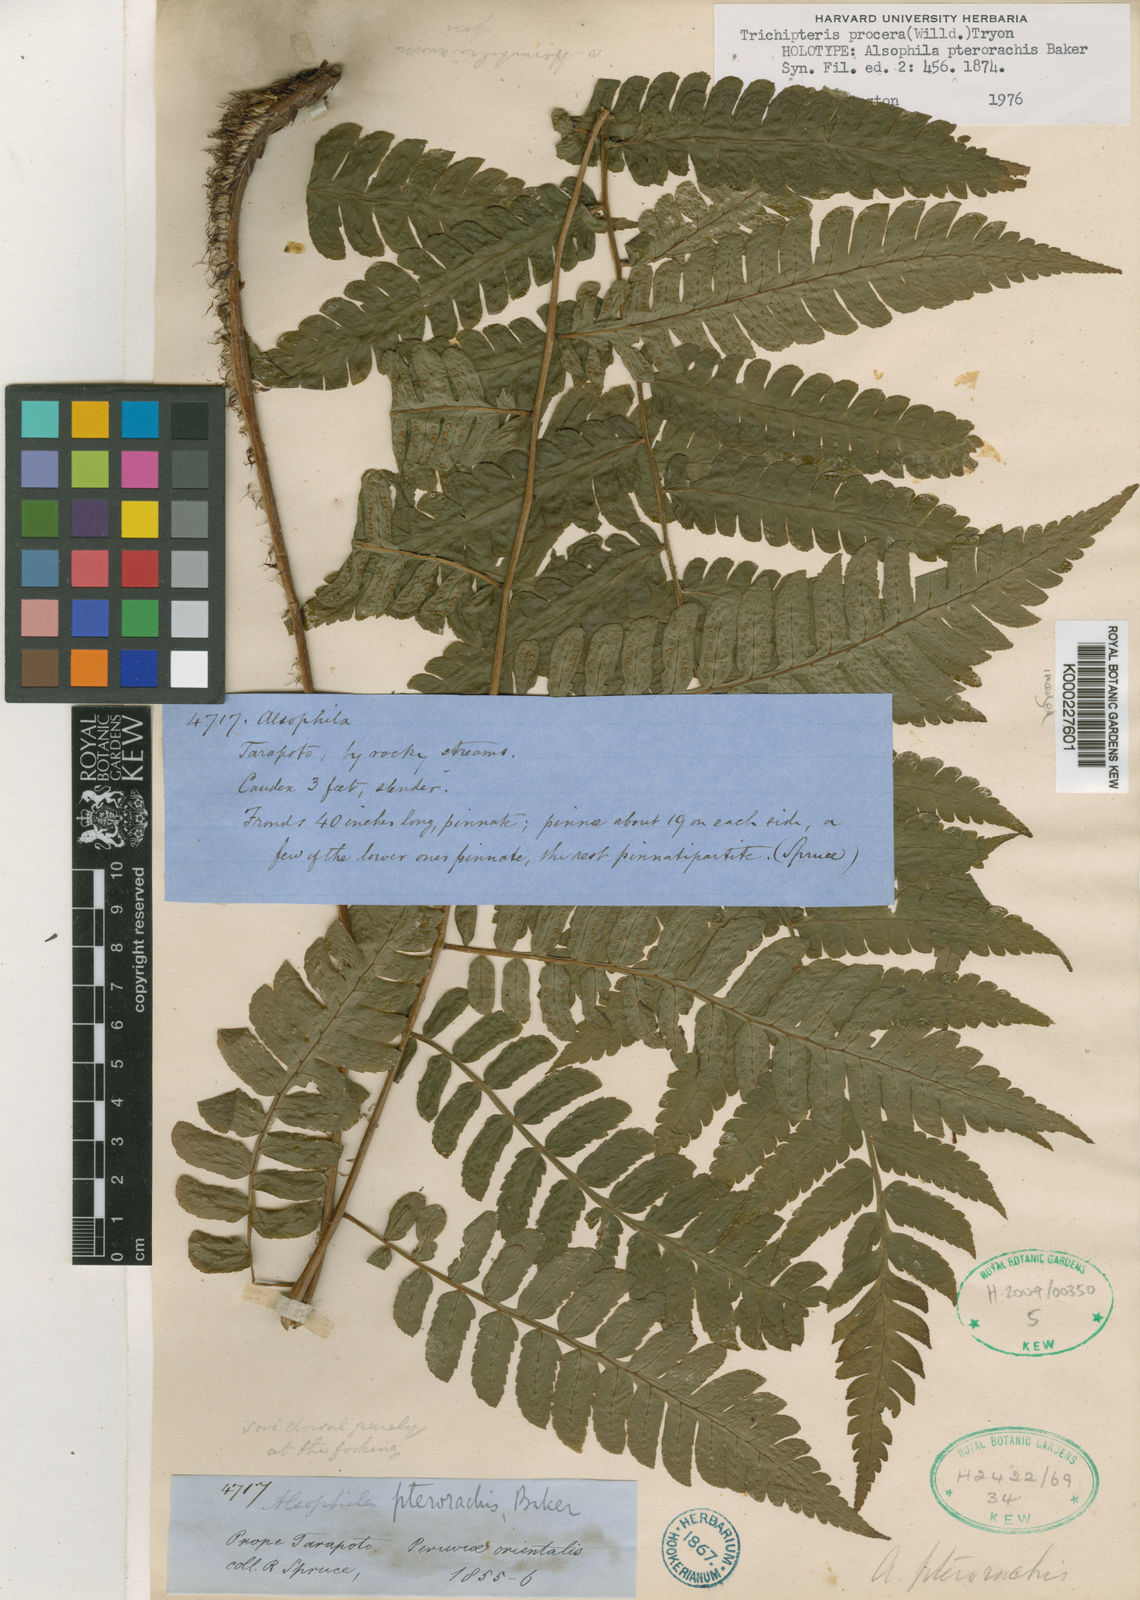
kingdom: Plantae
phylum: Tracheophyta
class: Polypodiopsida
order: Cyatheales
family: Cyatheaceae
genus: Cyathea
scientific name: Cyathea pungens
